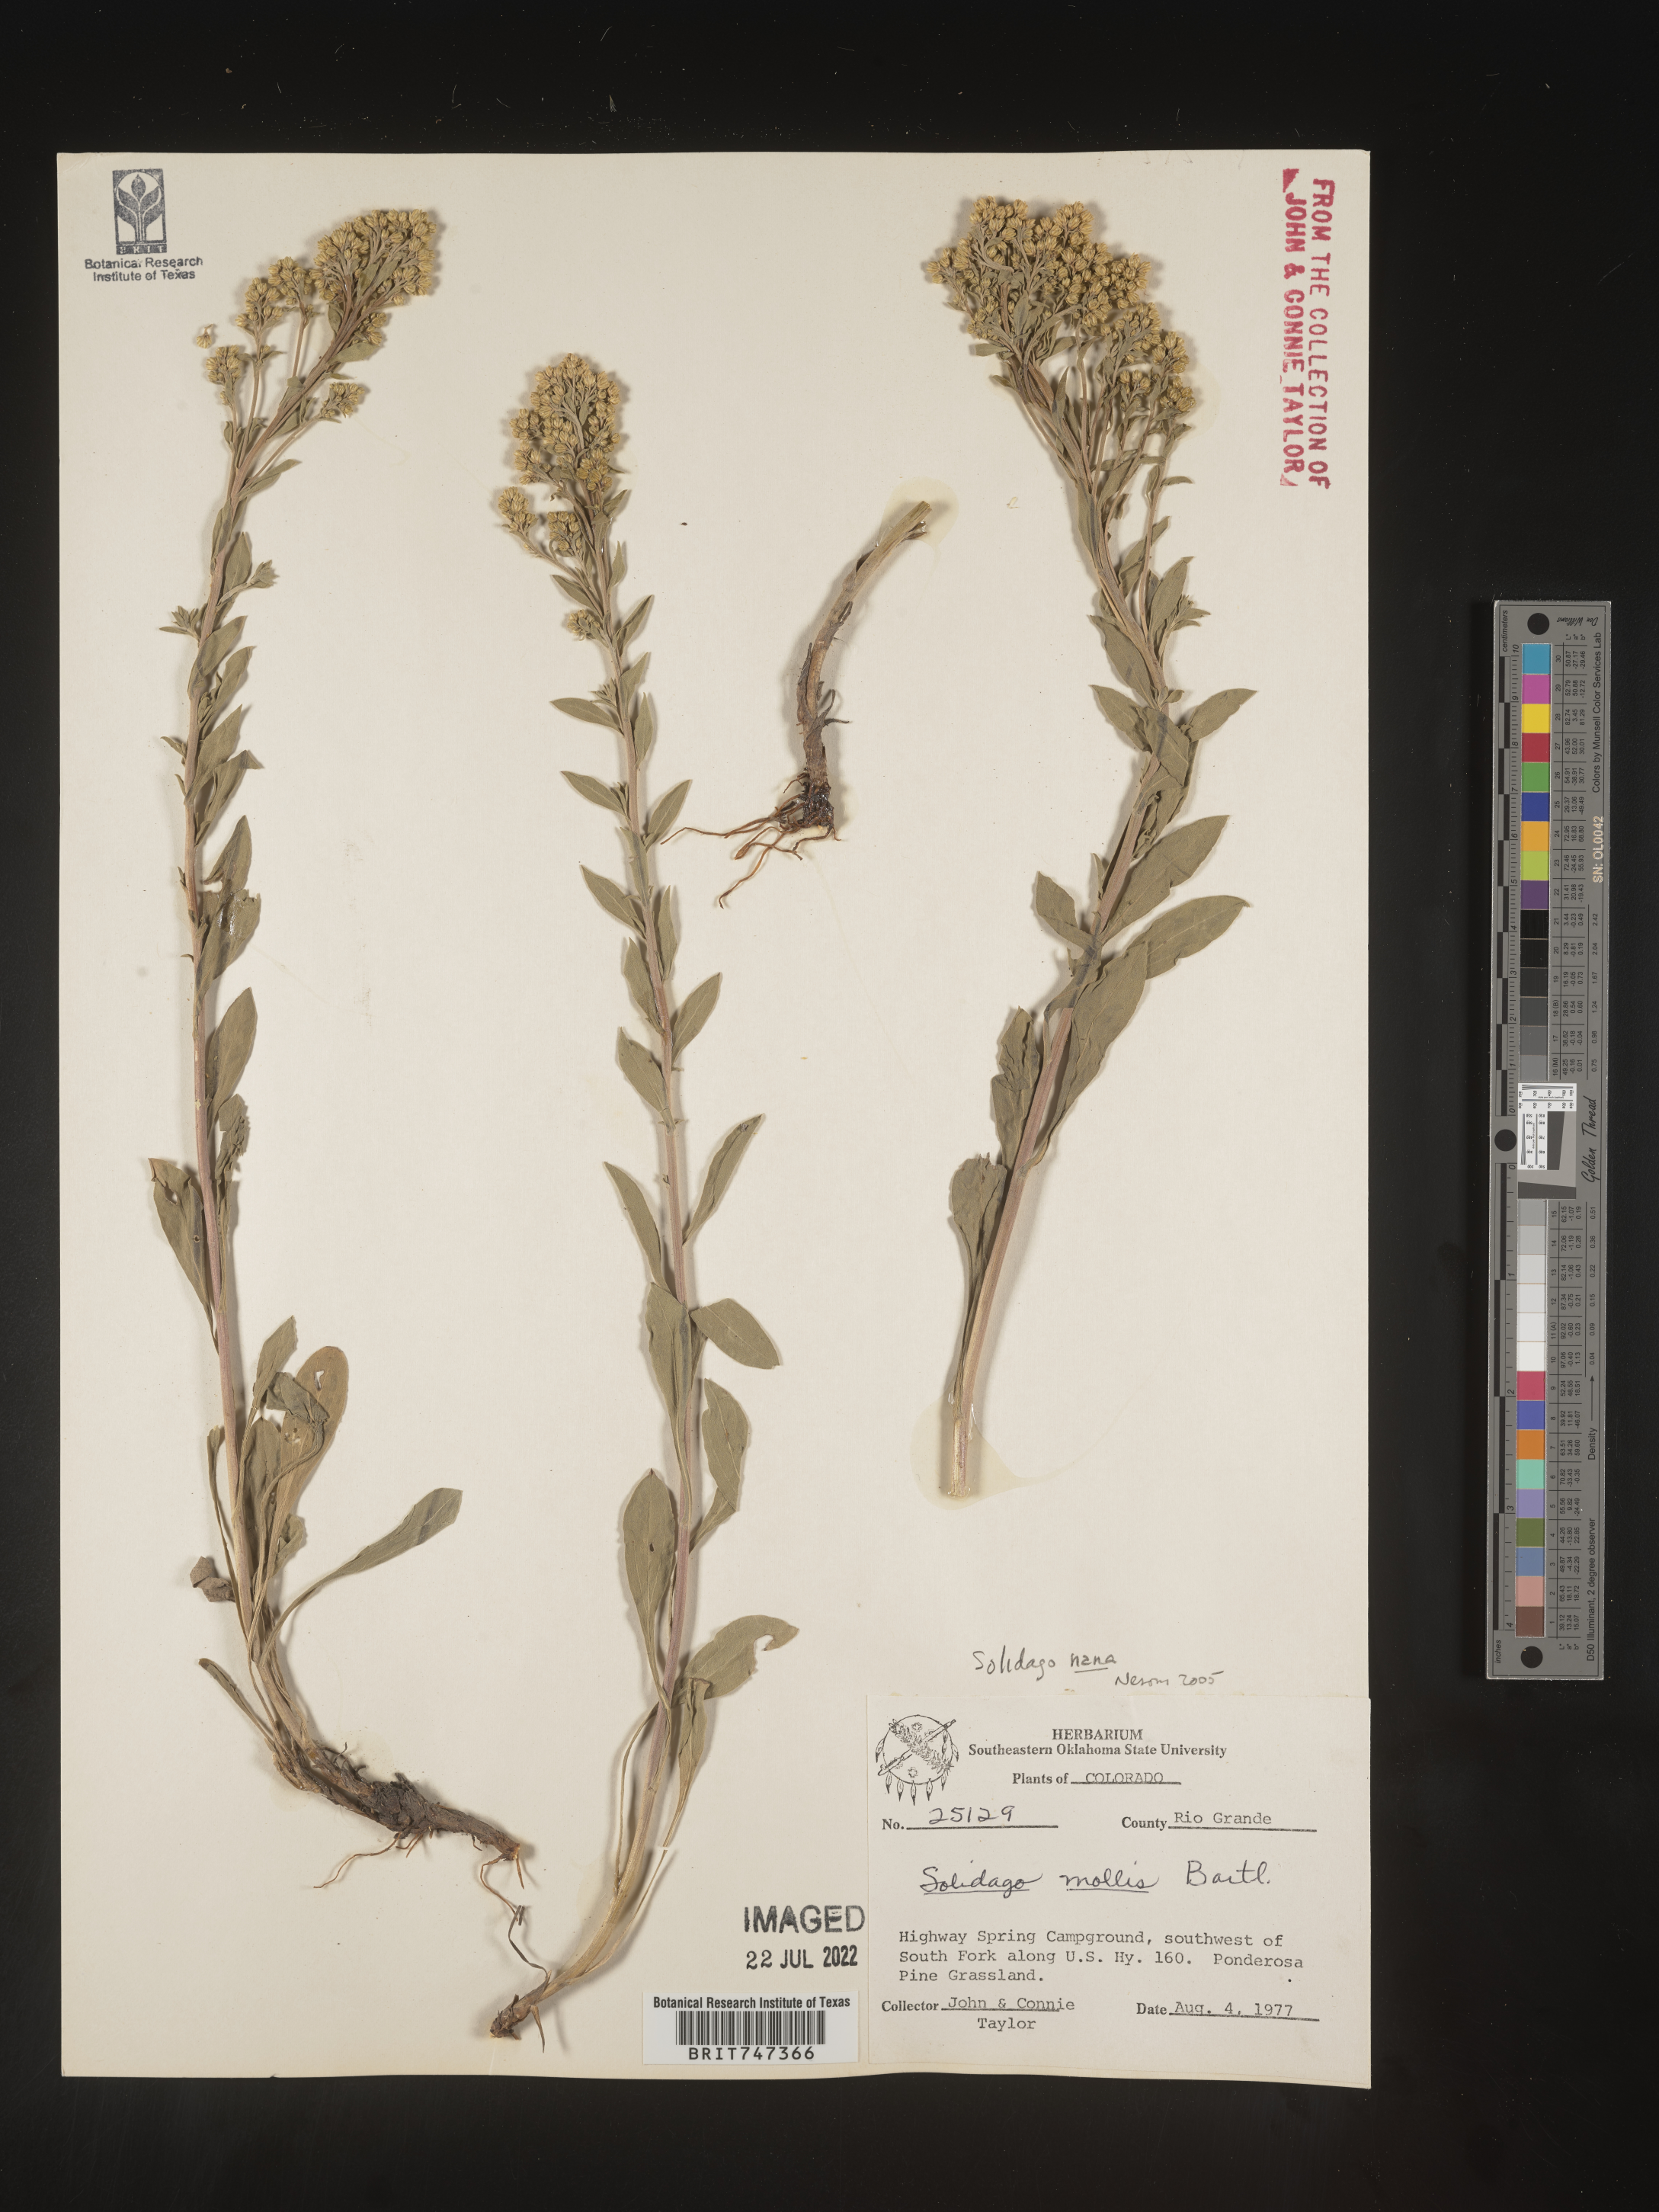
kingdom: Plantae
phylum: Tracheophyta
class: Magnoliopsida
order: Asterales
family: Asteraceae
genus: Solidago
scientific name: Solidago nana
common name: Baby goldenrod
